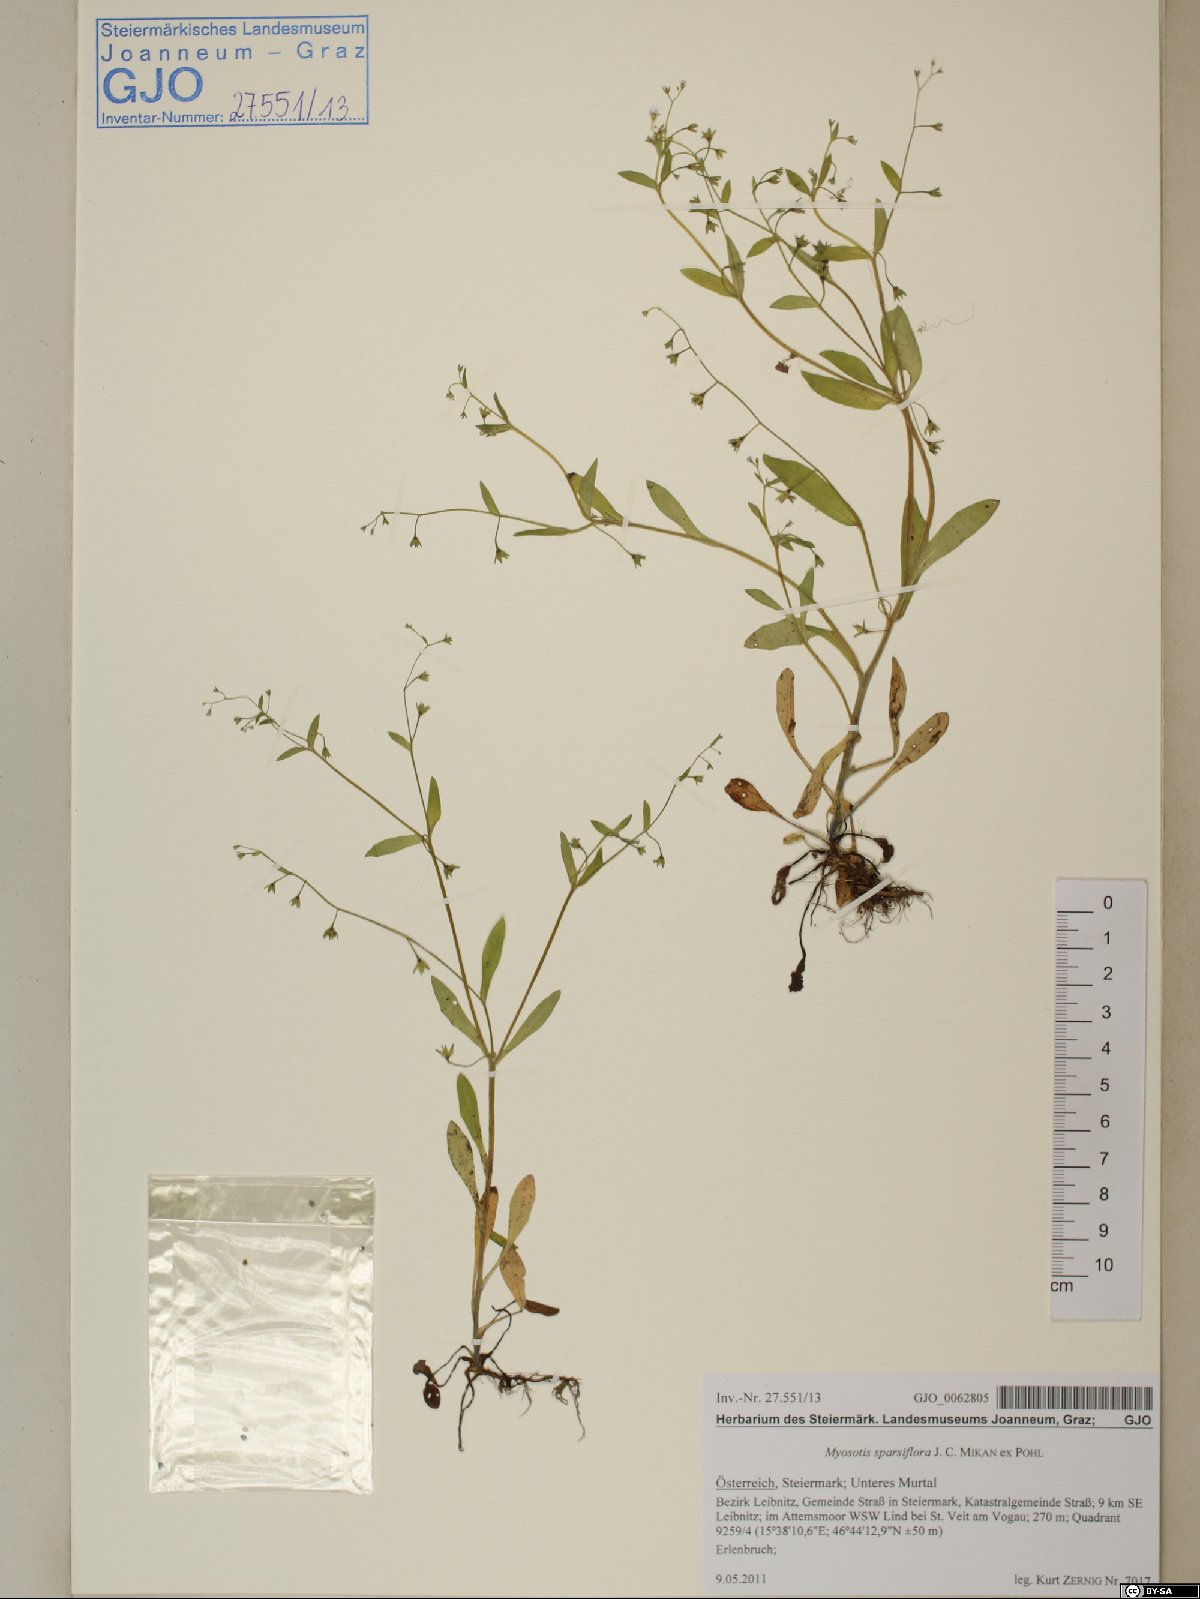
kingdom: Plantae
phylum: Tracheophyta
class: Magnoliopsida
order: Boraginales
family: Boraginaceae
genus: Myosotis
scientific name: Myosotis sparsiflora
